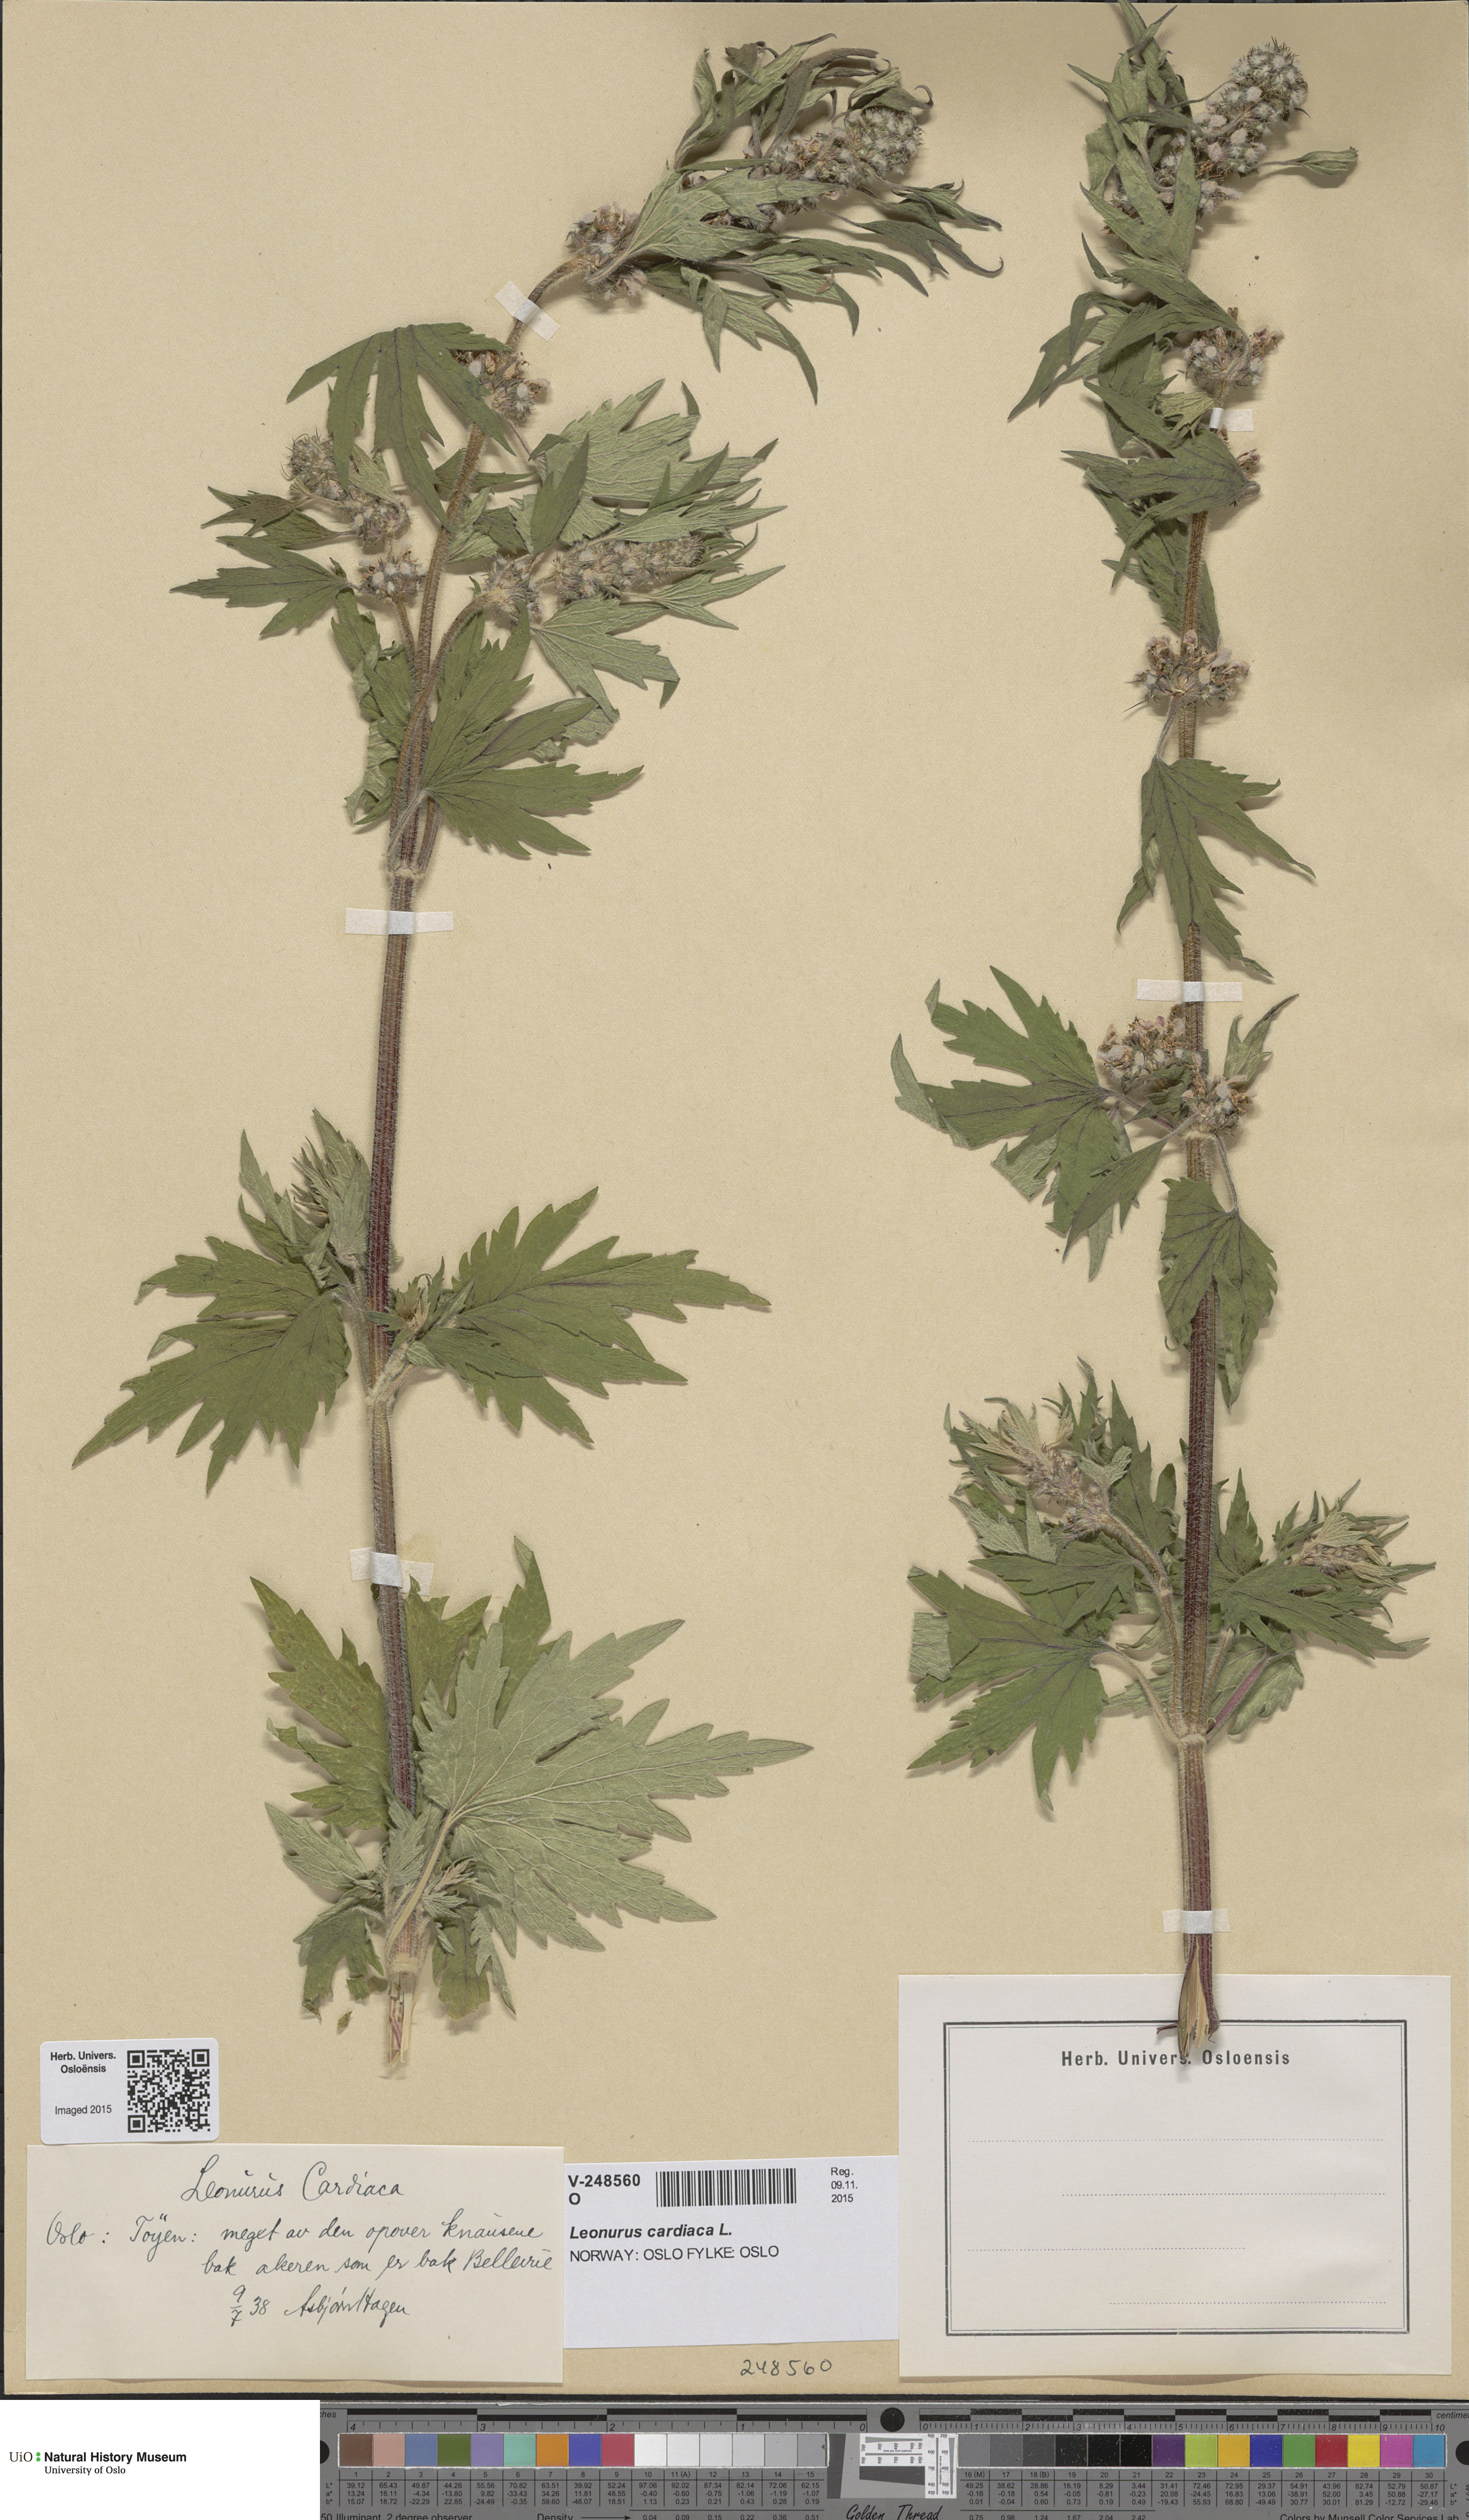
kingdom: Plantae
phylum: Tracheophyta
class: Magnoliopsida
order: Lamiales
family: Lamiaceae
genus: Leonurus
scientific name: Leonurus quinquelobatus
